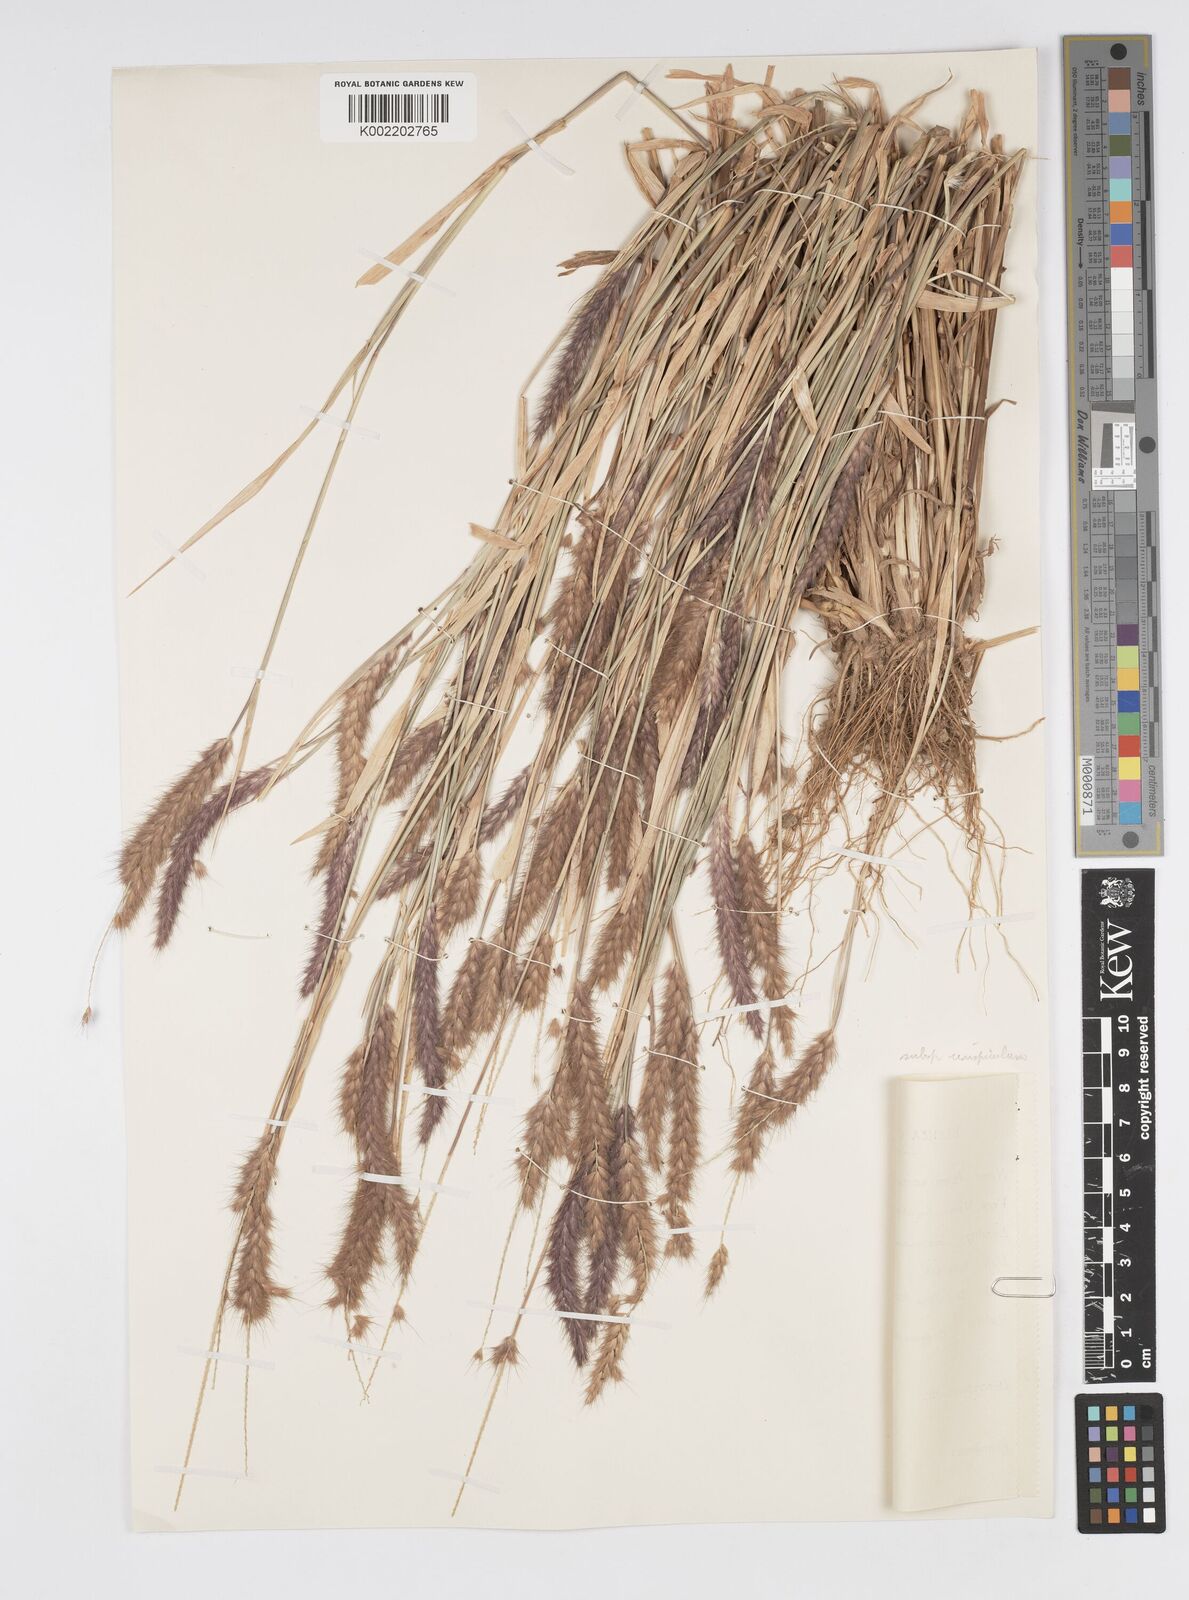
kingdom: Plantae
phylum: Tracheophyta
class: Liliopsida
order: Poales
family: Poaceae
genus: Cenchrus
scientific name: Cenchrus pedicellatus
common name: Hairy fountain grass
